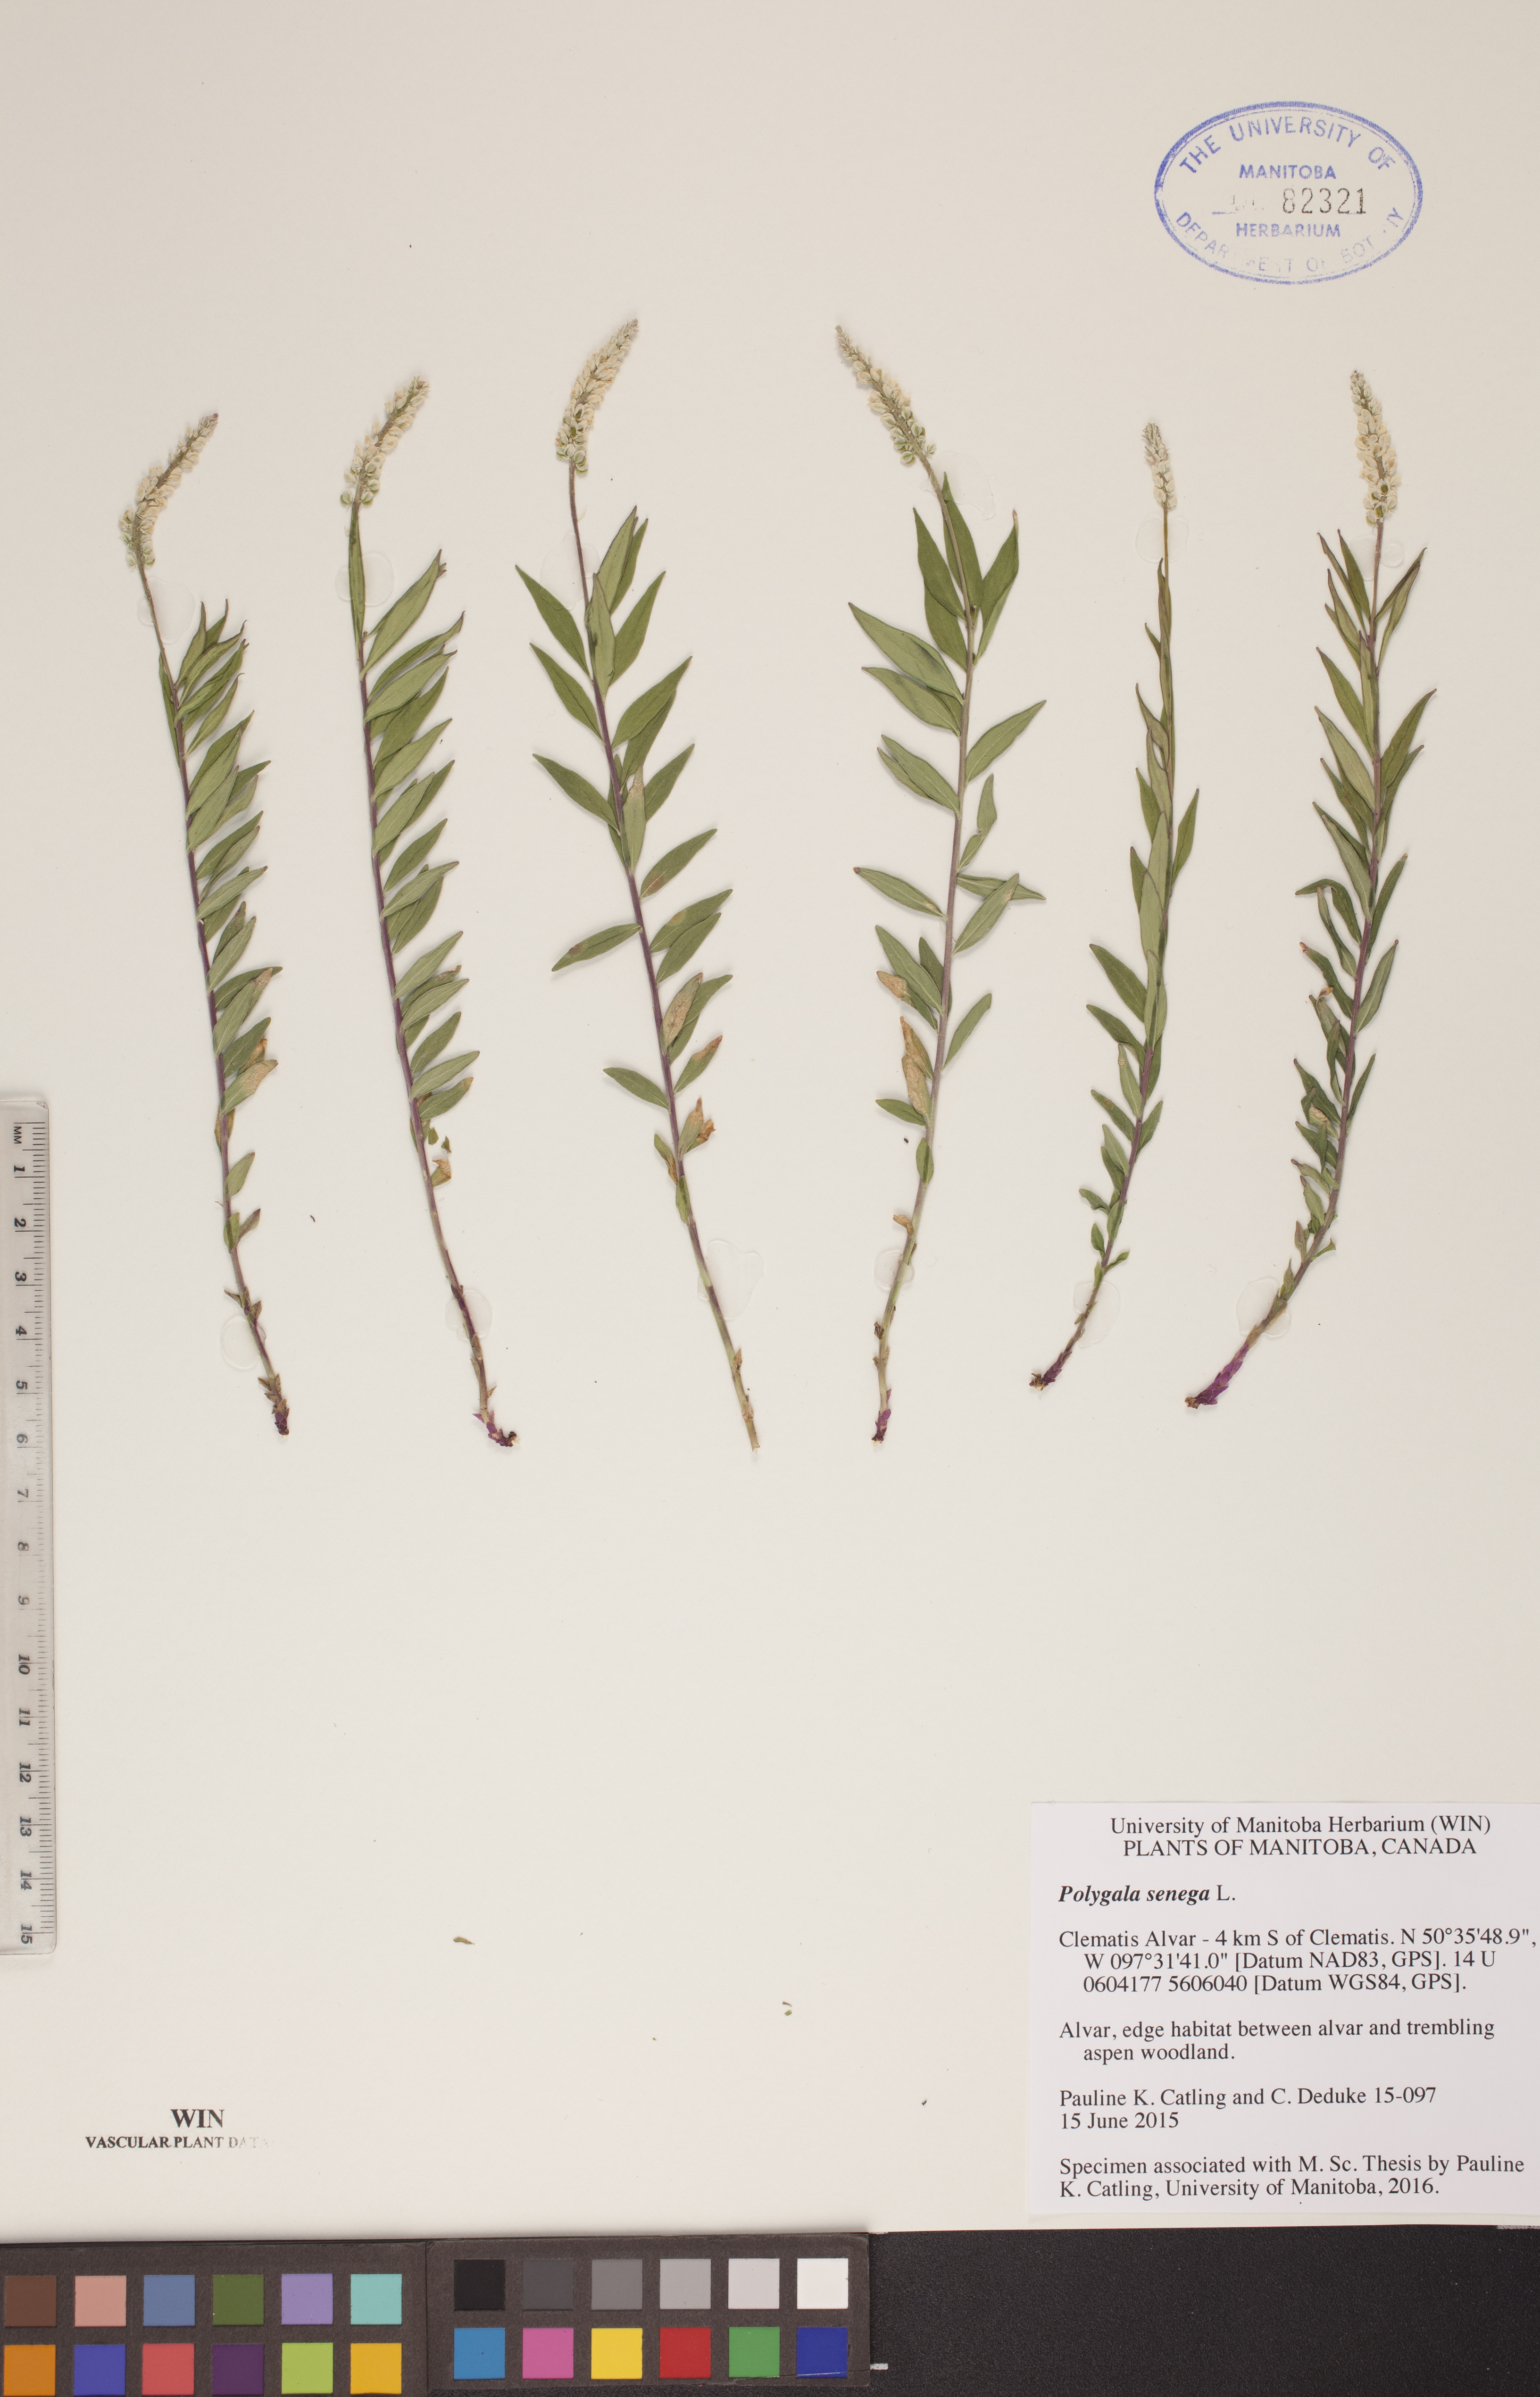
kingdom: Plantae
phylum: Tracheophyta
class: Magnoliopsida
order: Fabales
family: Polygalaceae
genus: Polygala
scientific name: Polygala senega
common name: Seneca snakeroot
